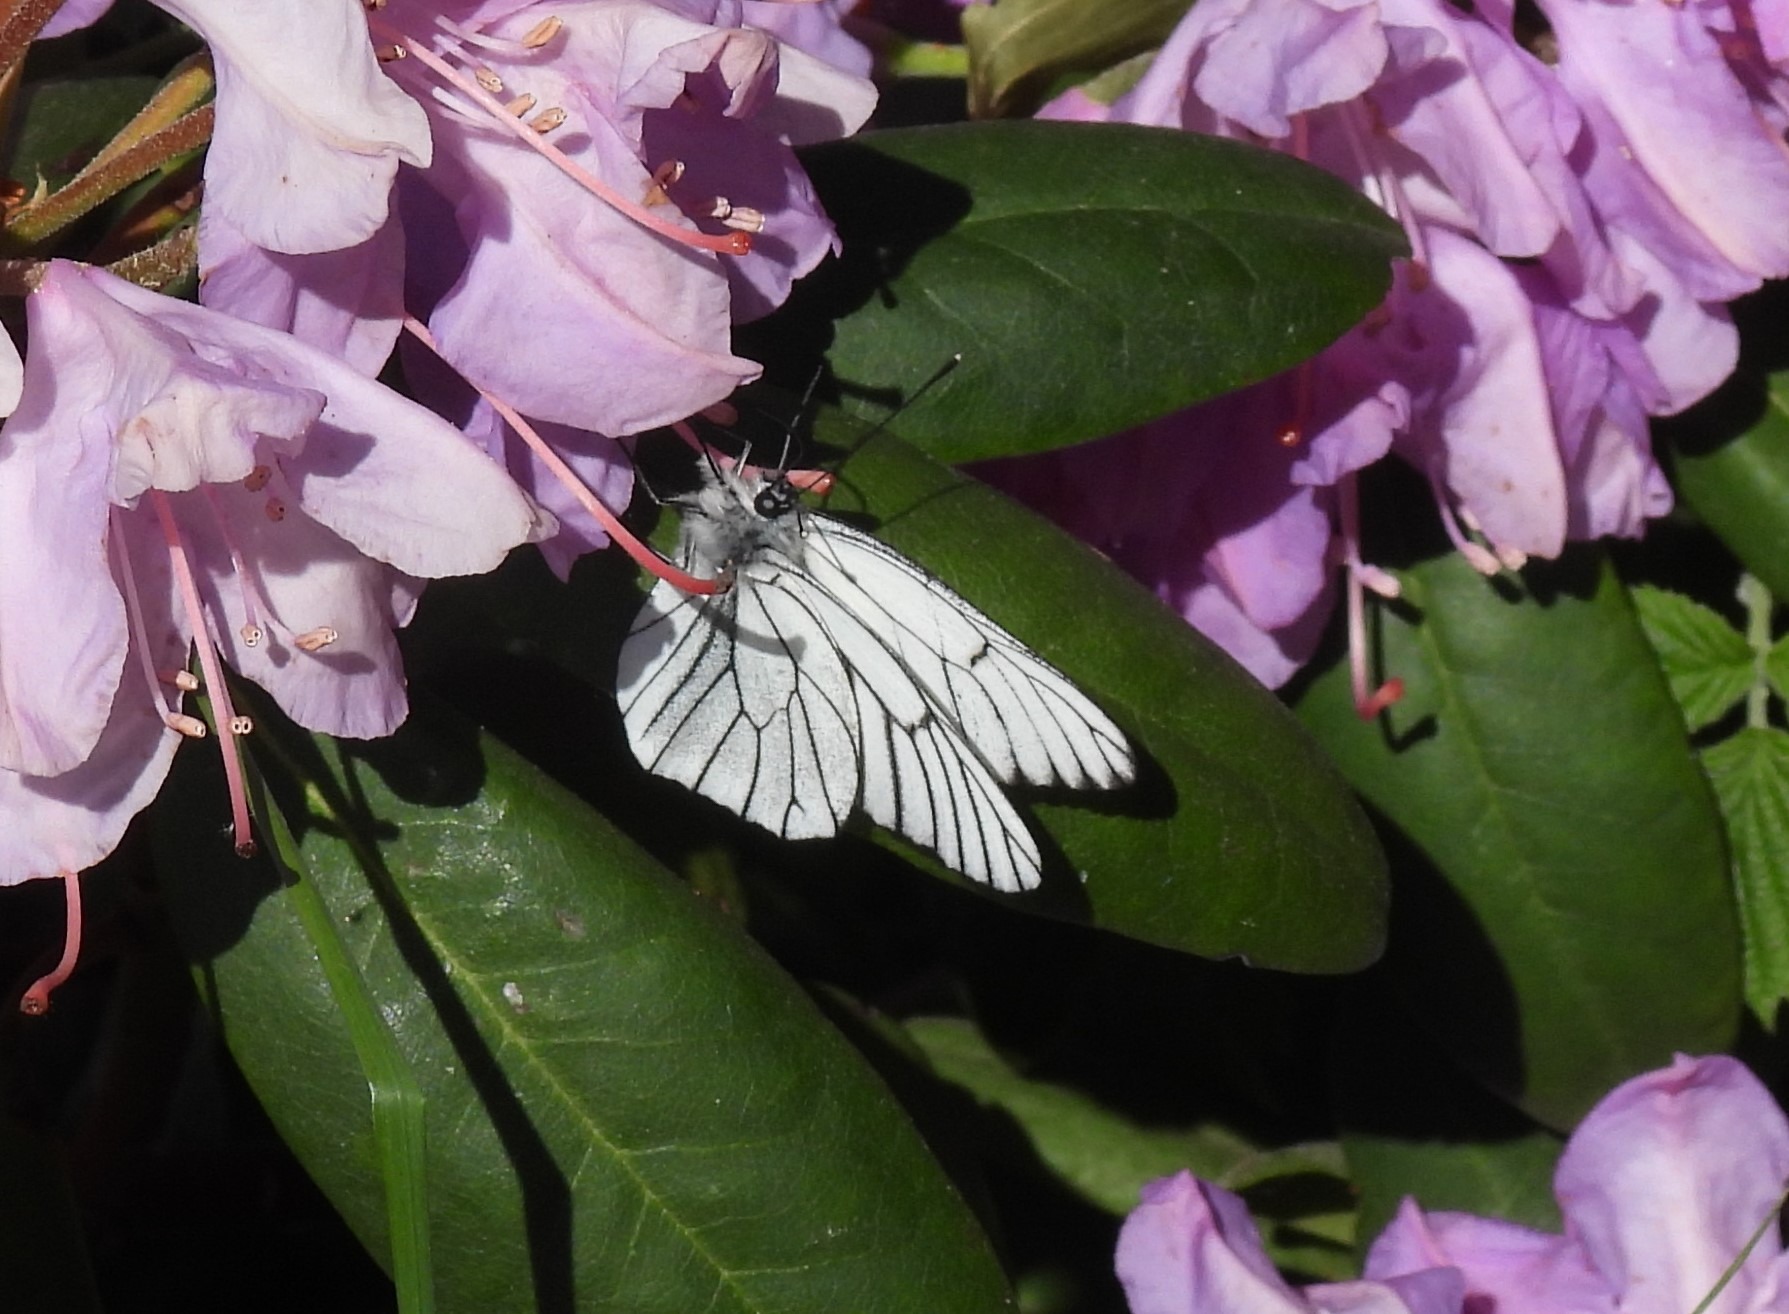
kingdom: Animalia
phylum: Arthropoda
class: Insecta
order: Lepidoptera
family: Pieridae
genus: Aporia
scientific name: Aporia crataegi
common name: Sortåret hvidvinge
